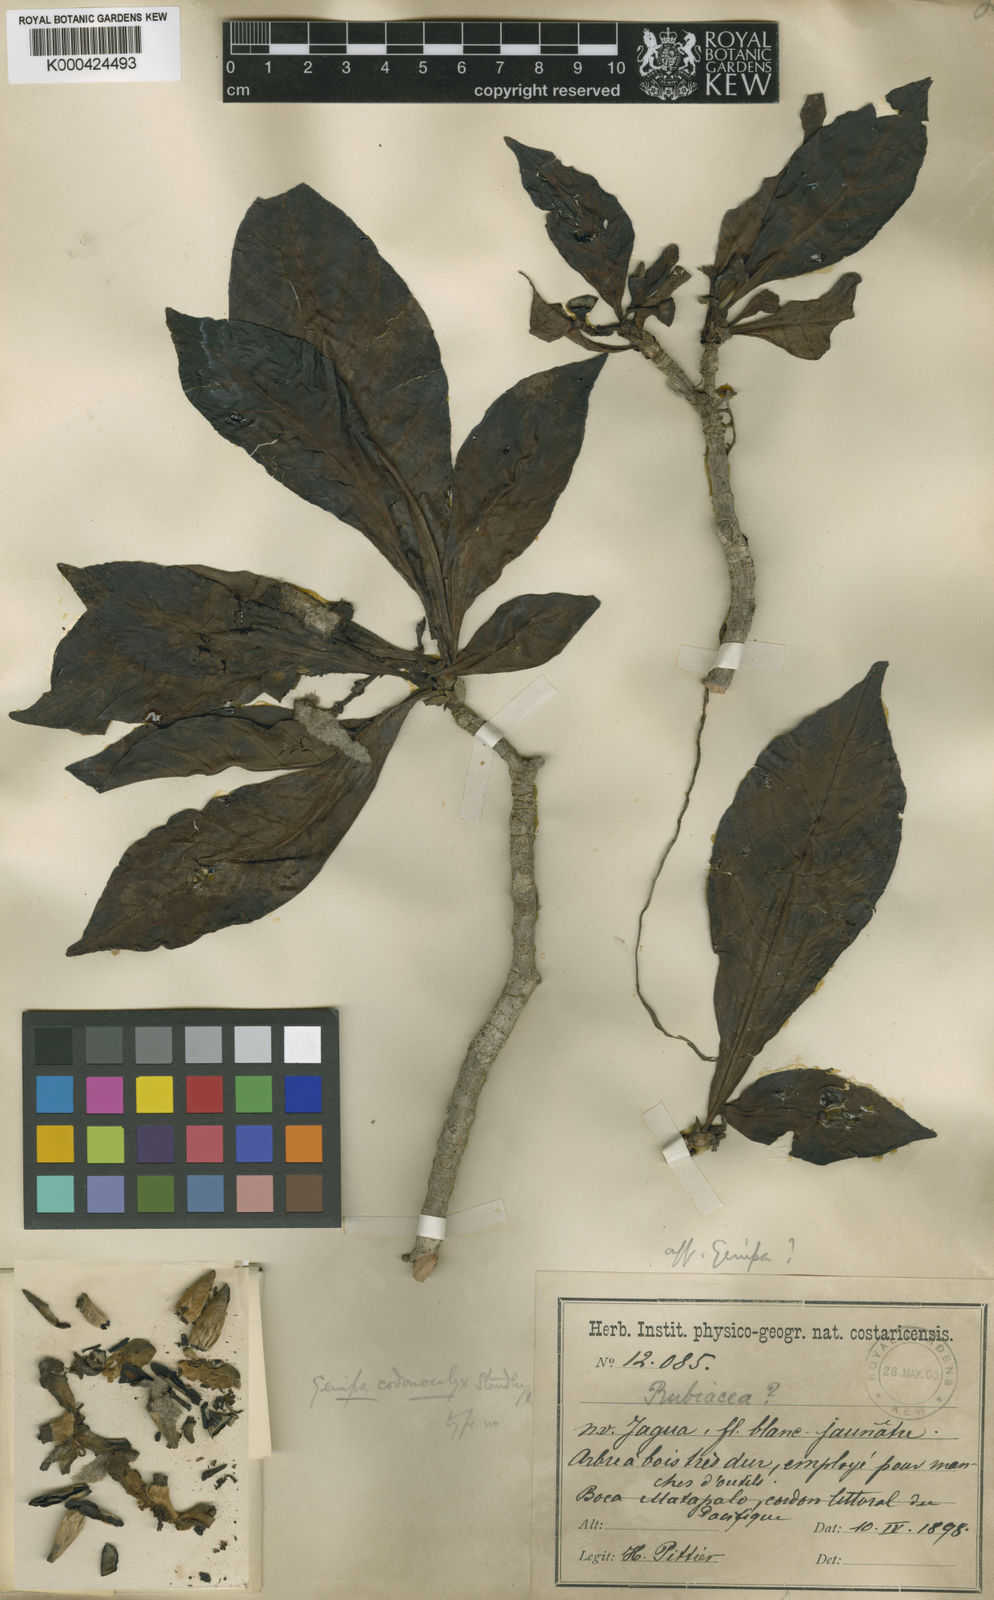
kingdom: Plantae
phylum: Tracheophyta
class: Magnoliopsida
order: Gentianales
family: Rubiaceae
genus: Genipa
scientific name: Genipa americana
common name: Genipap
